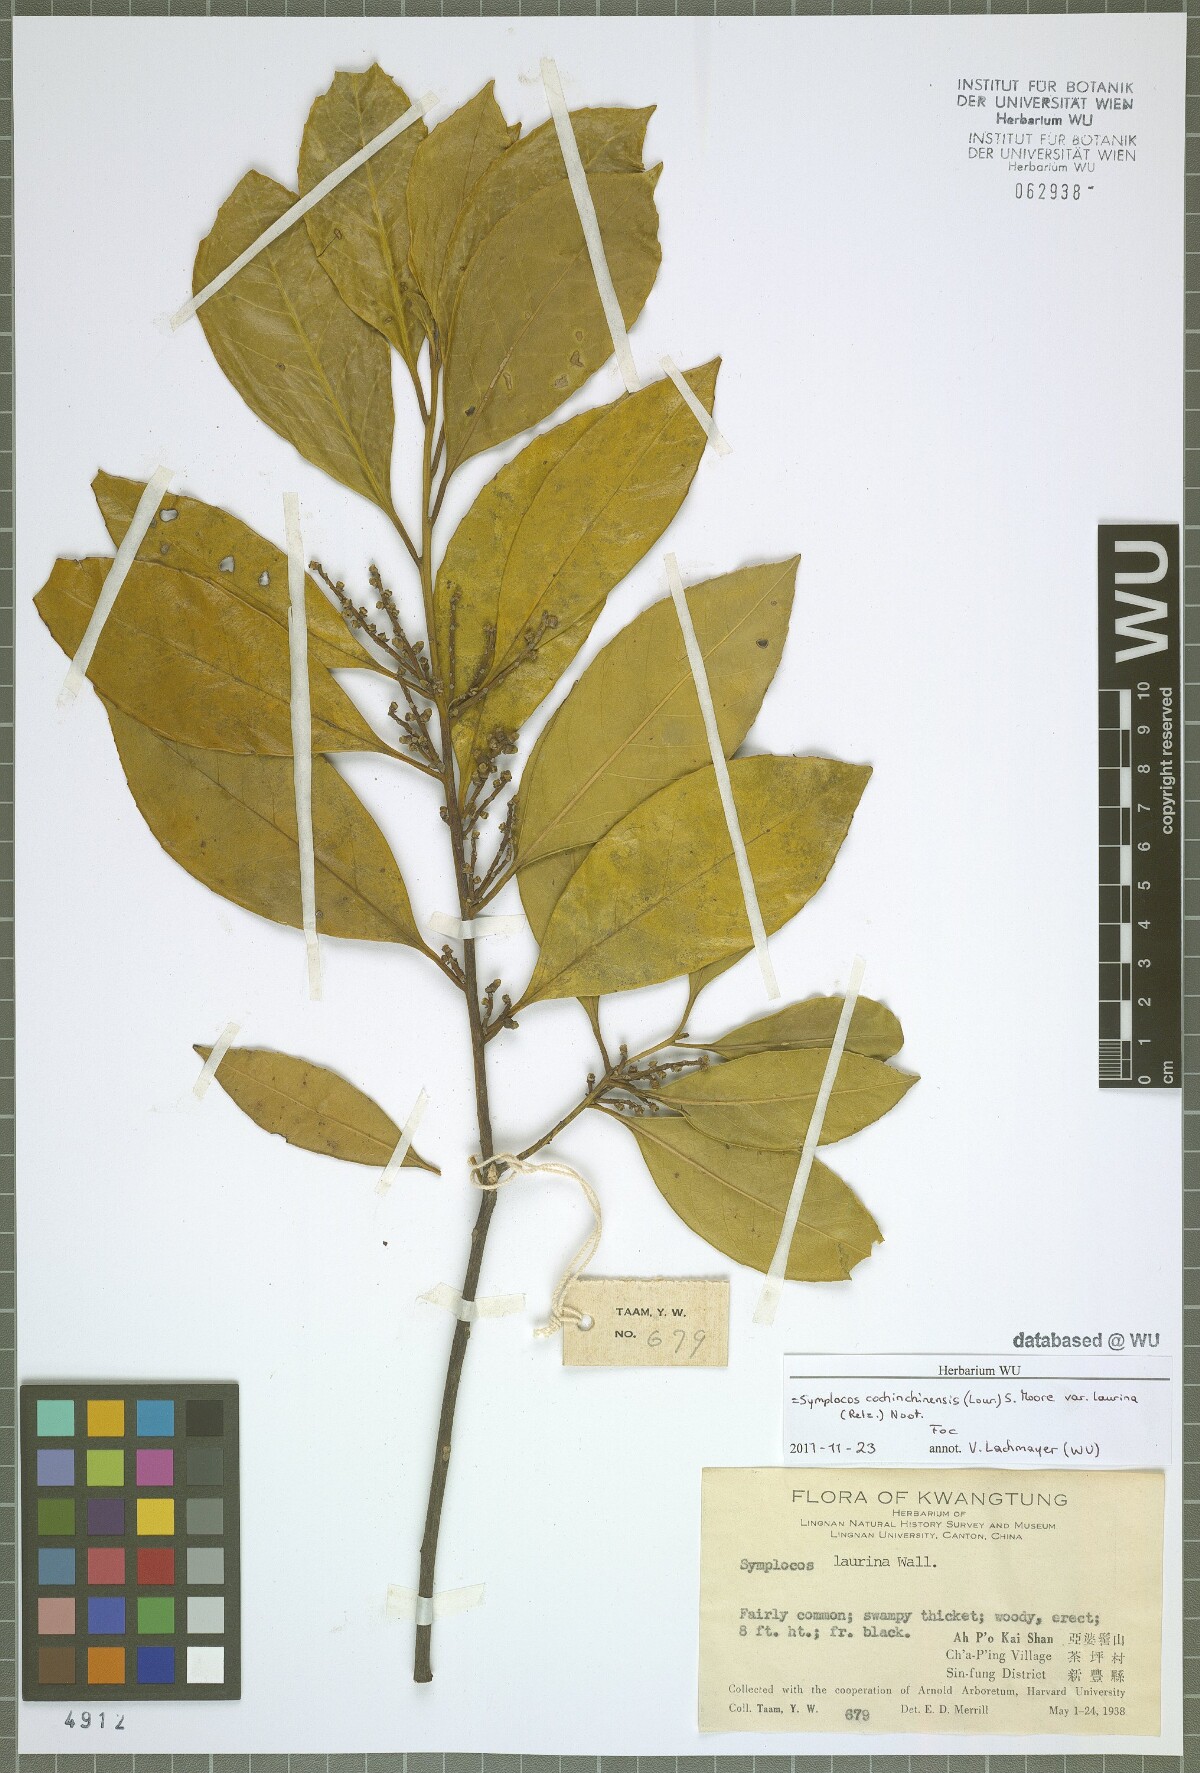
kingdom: Plantae
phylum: Tracheophyta
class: Magnoliopsida
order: Ericales
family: Symplocaceae
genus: Symplocos
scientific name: Symplocos acuminata
